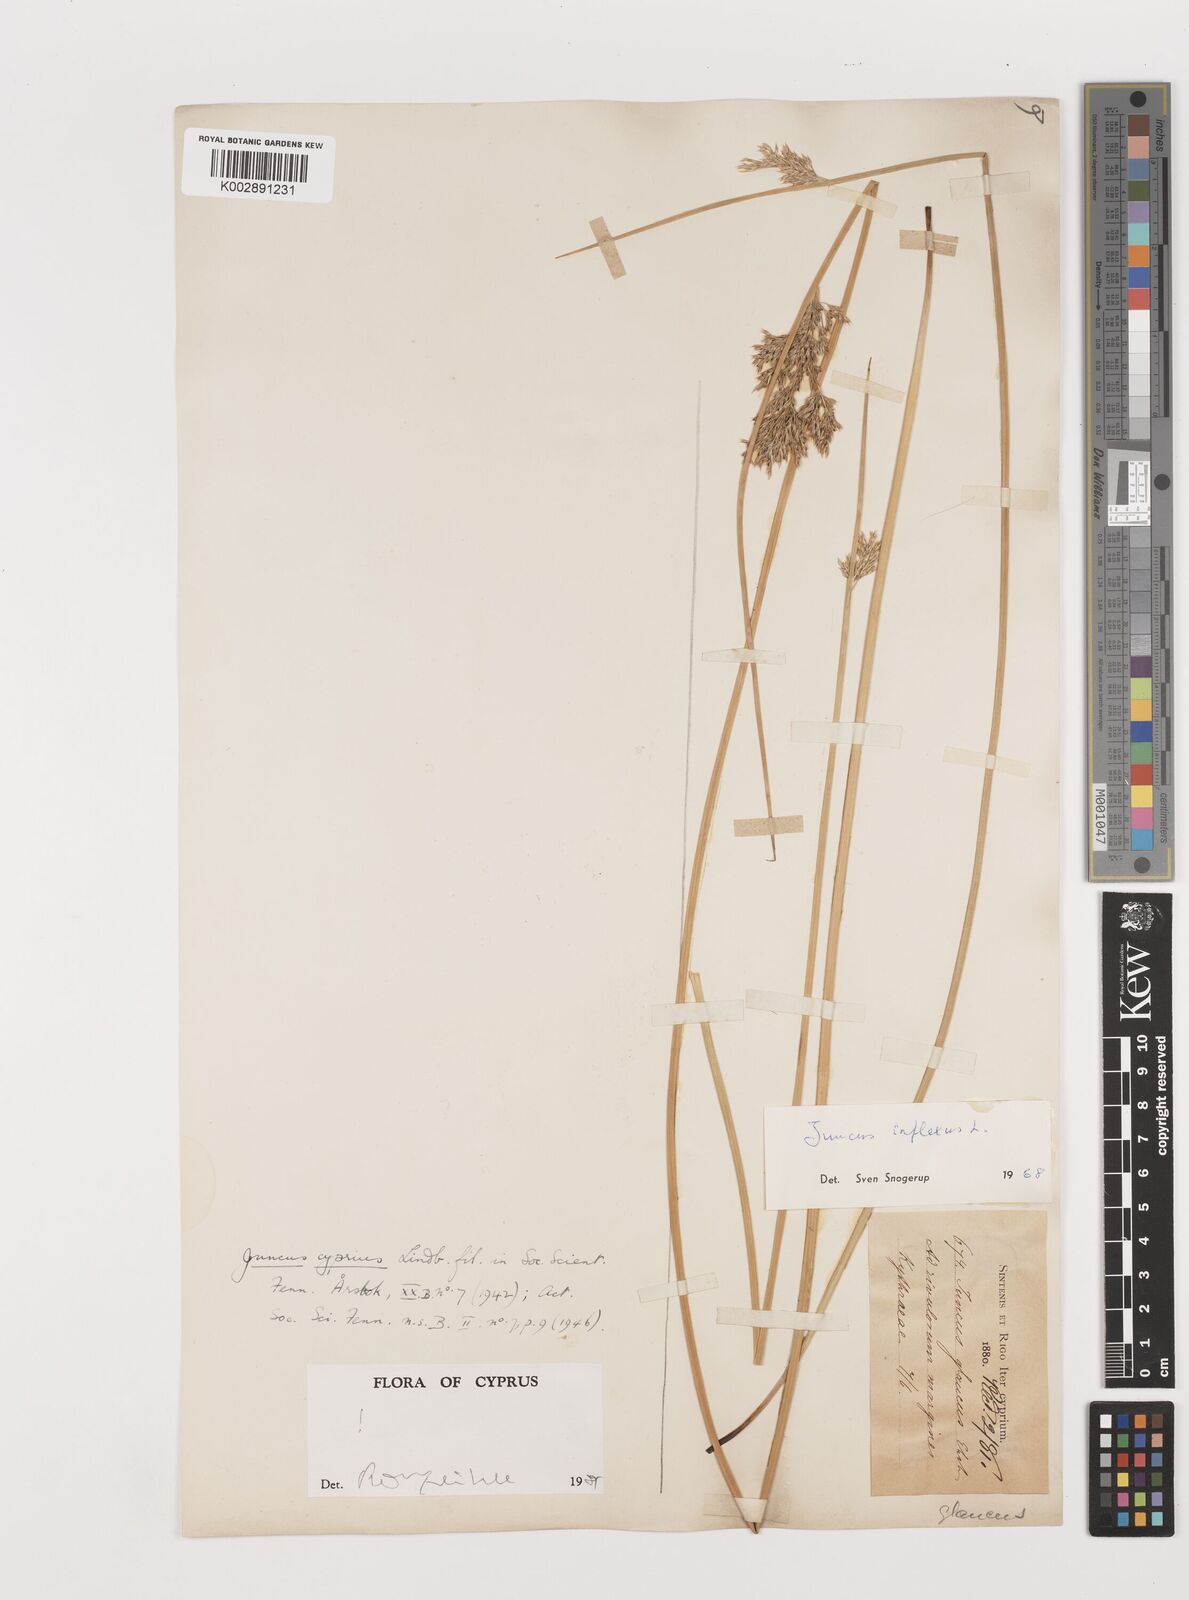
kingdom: Plantae
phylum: Tracheophyta
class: Liliopsida
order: Poales
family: Juncaceae
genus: Juncus
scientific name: Juncus inflexus
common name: Hard rush
